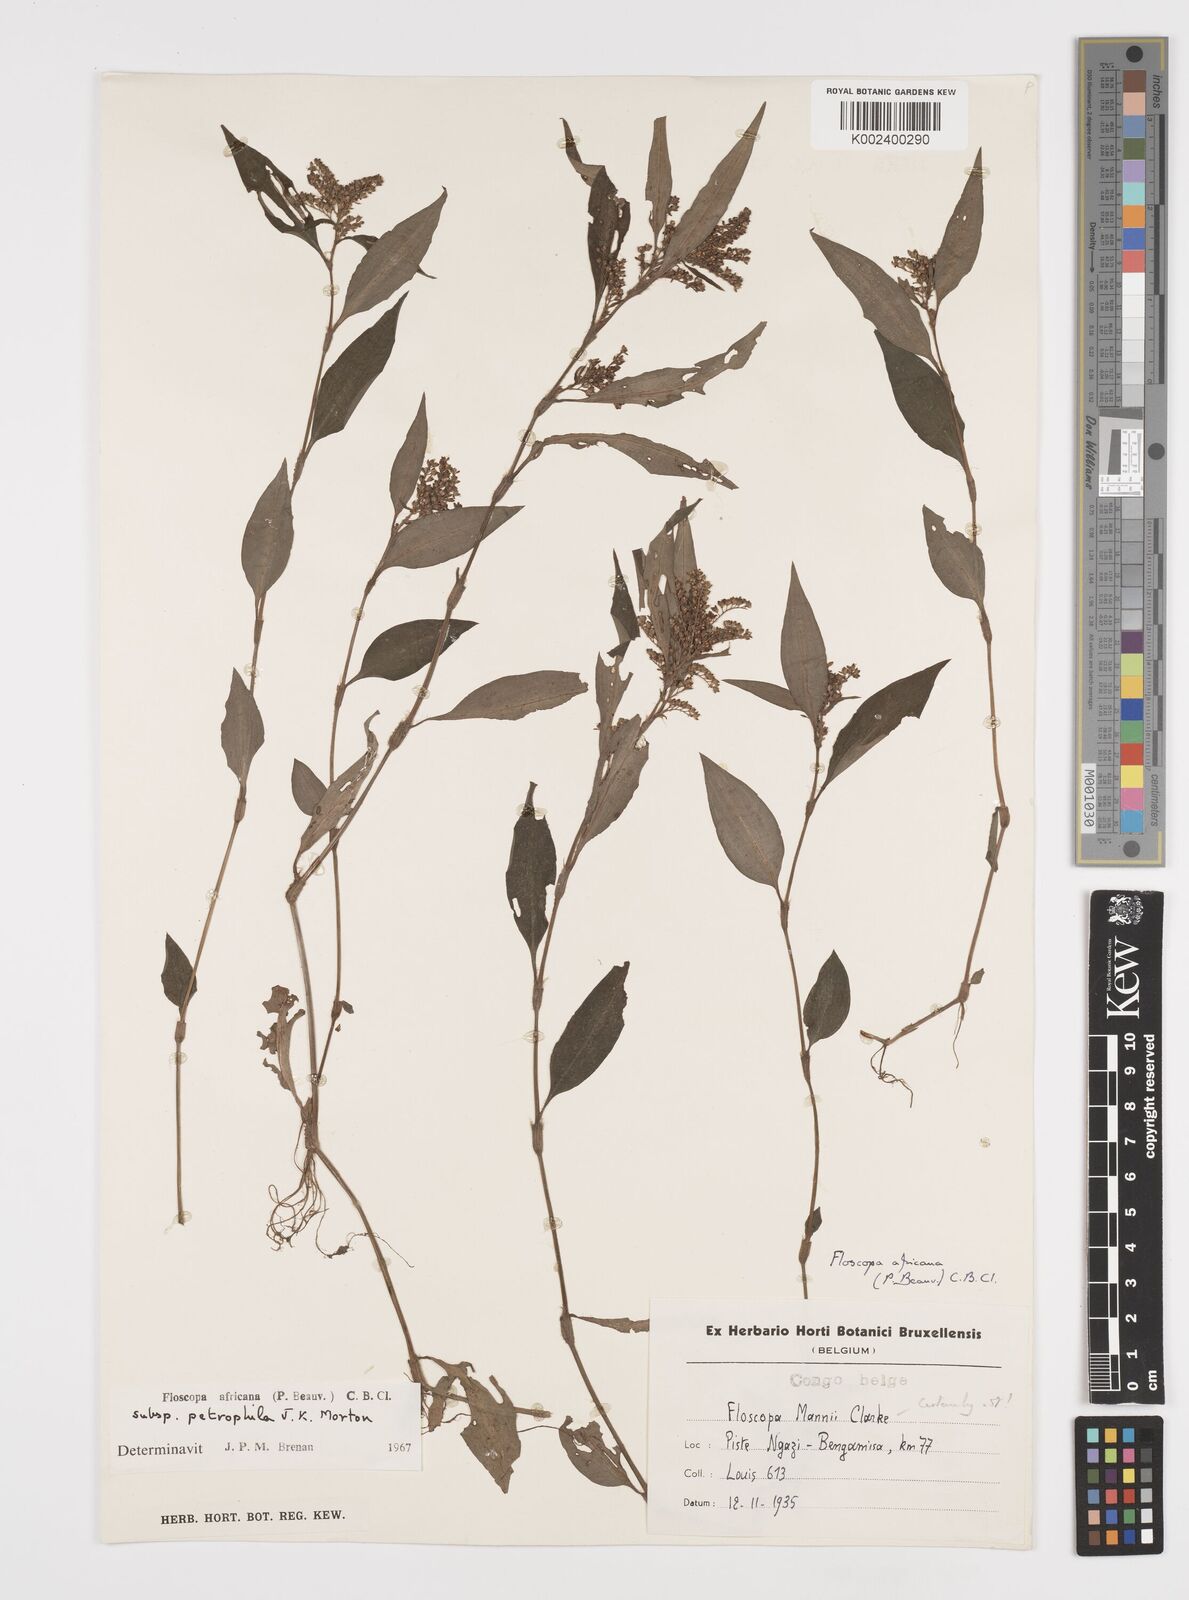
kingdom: Plantae
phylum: Tracheophyta
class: Liliopsida
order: Commelinales
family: Commelinaceae
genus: Floscopa
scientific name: Floscopa africana
